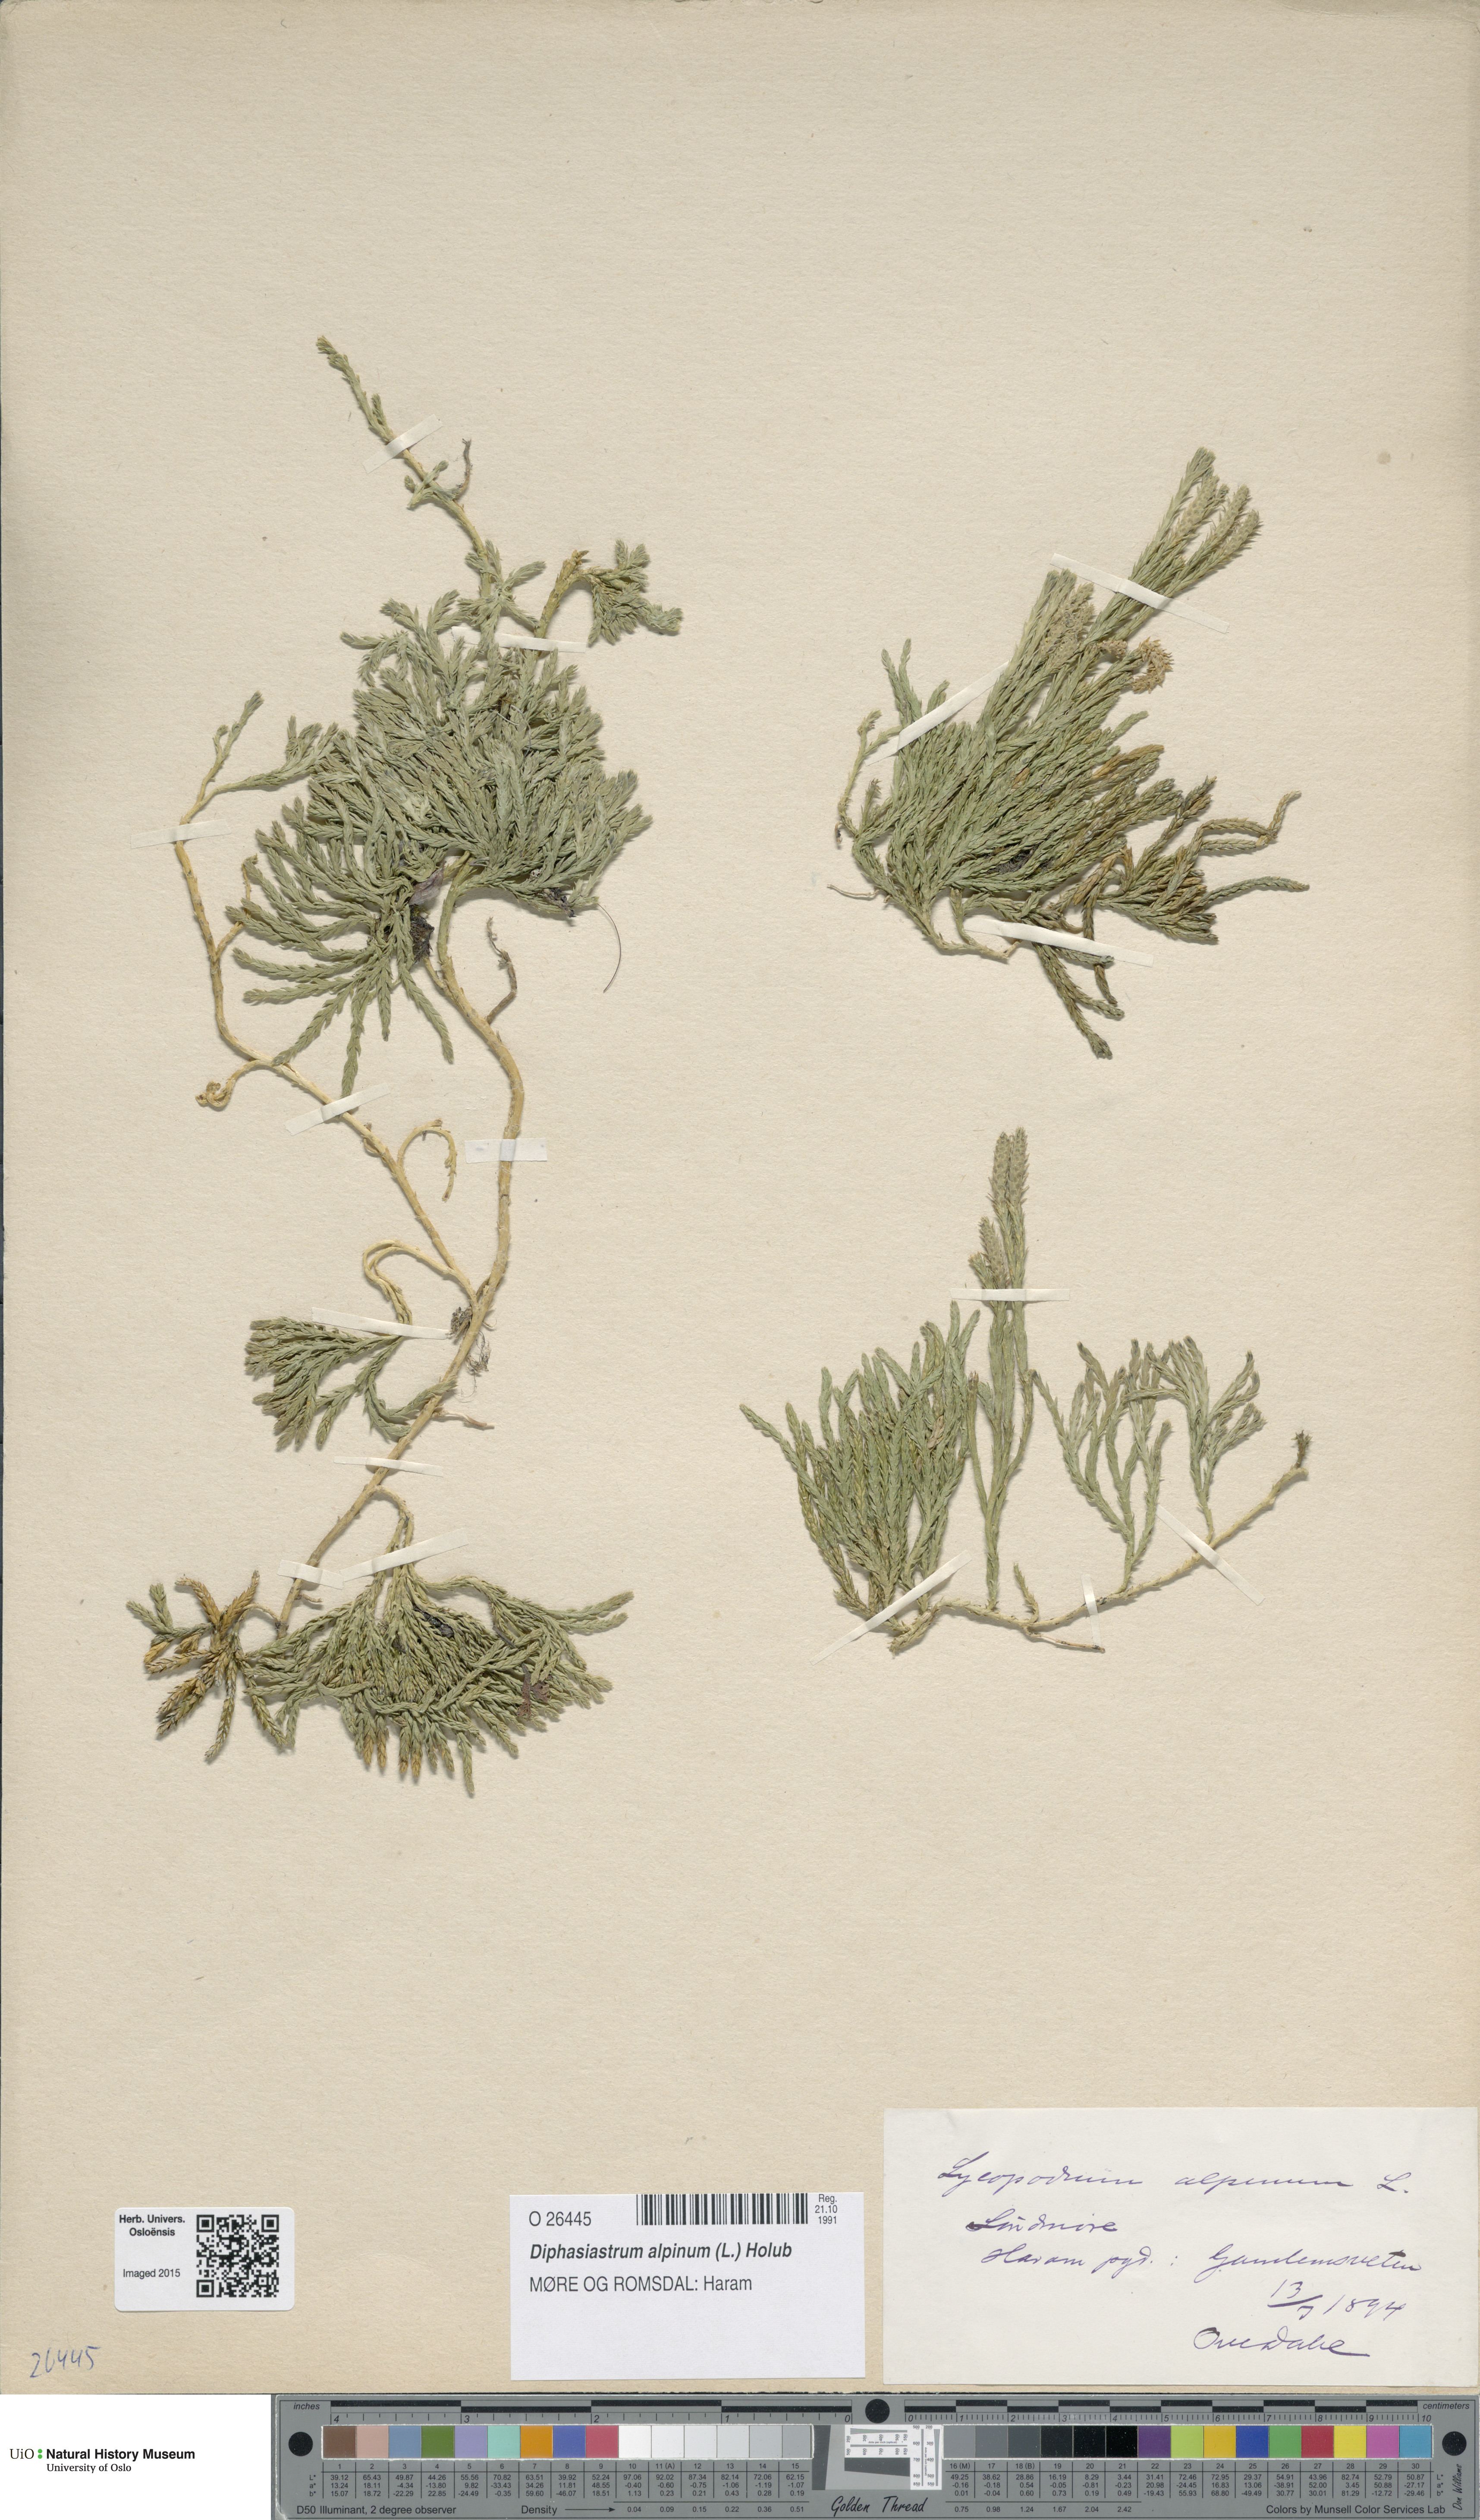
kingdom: Plantae
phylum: Tracheophyta
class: Lycopodiopsida
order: Lycopodiales
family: Lycopodiaceae
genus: Diphasiastrum
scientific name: Diphasiastrum alpinum
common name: Alpine clubmoss
